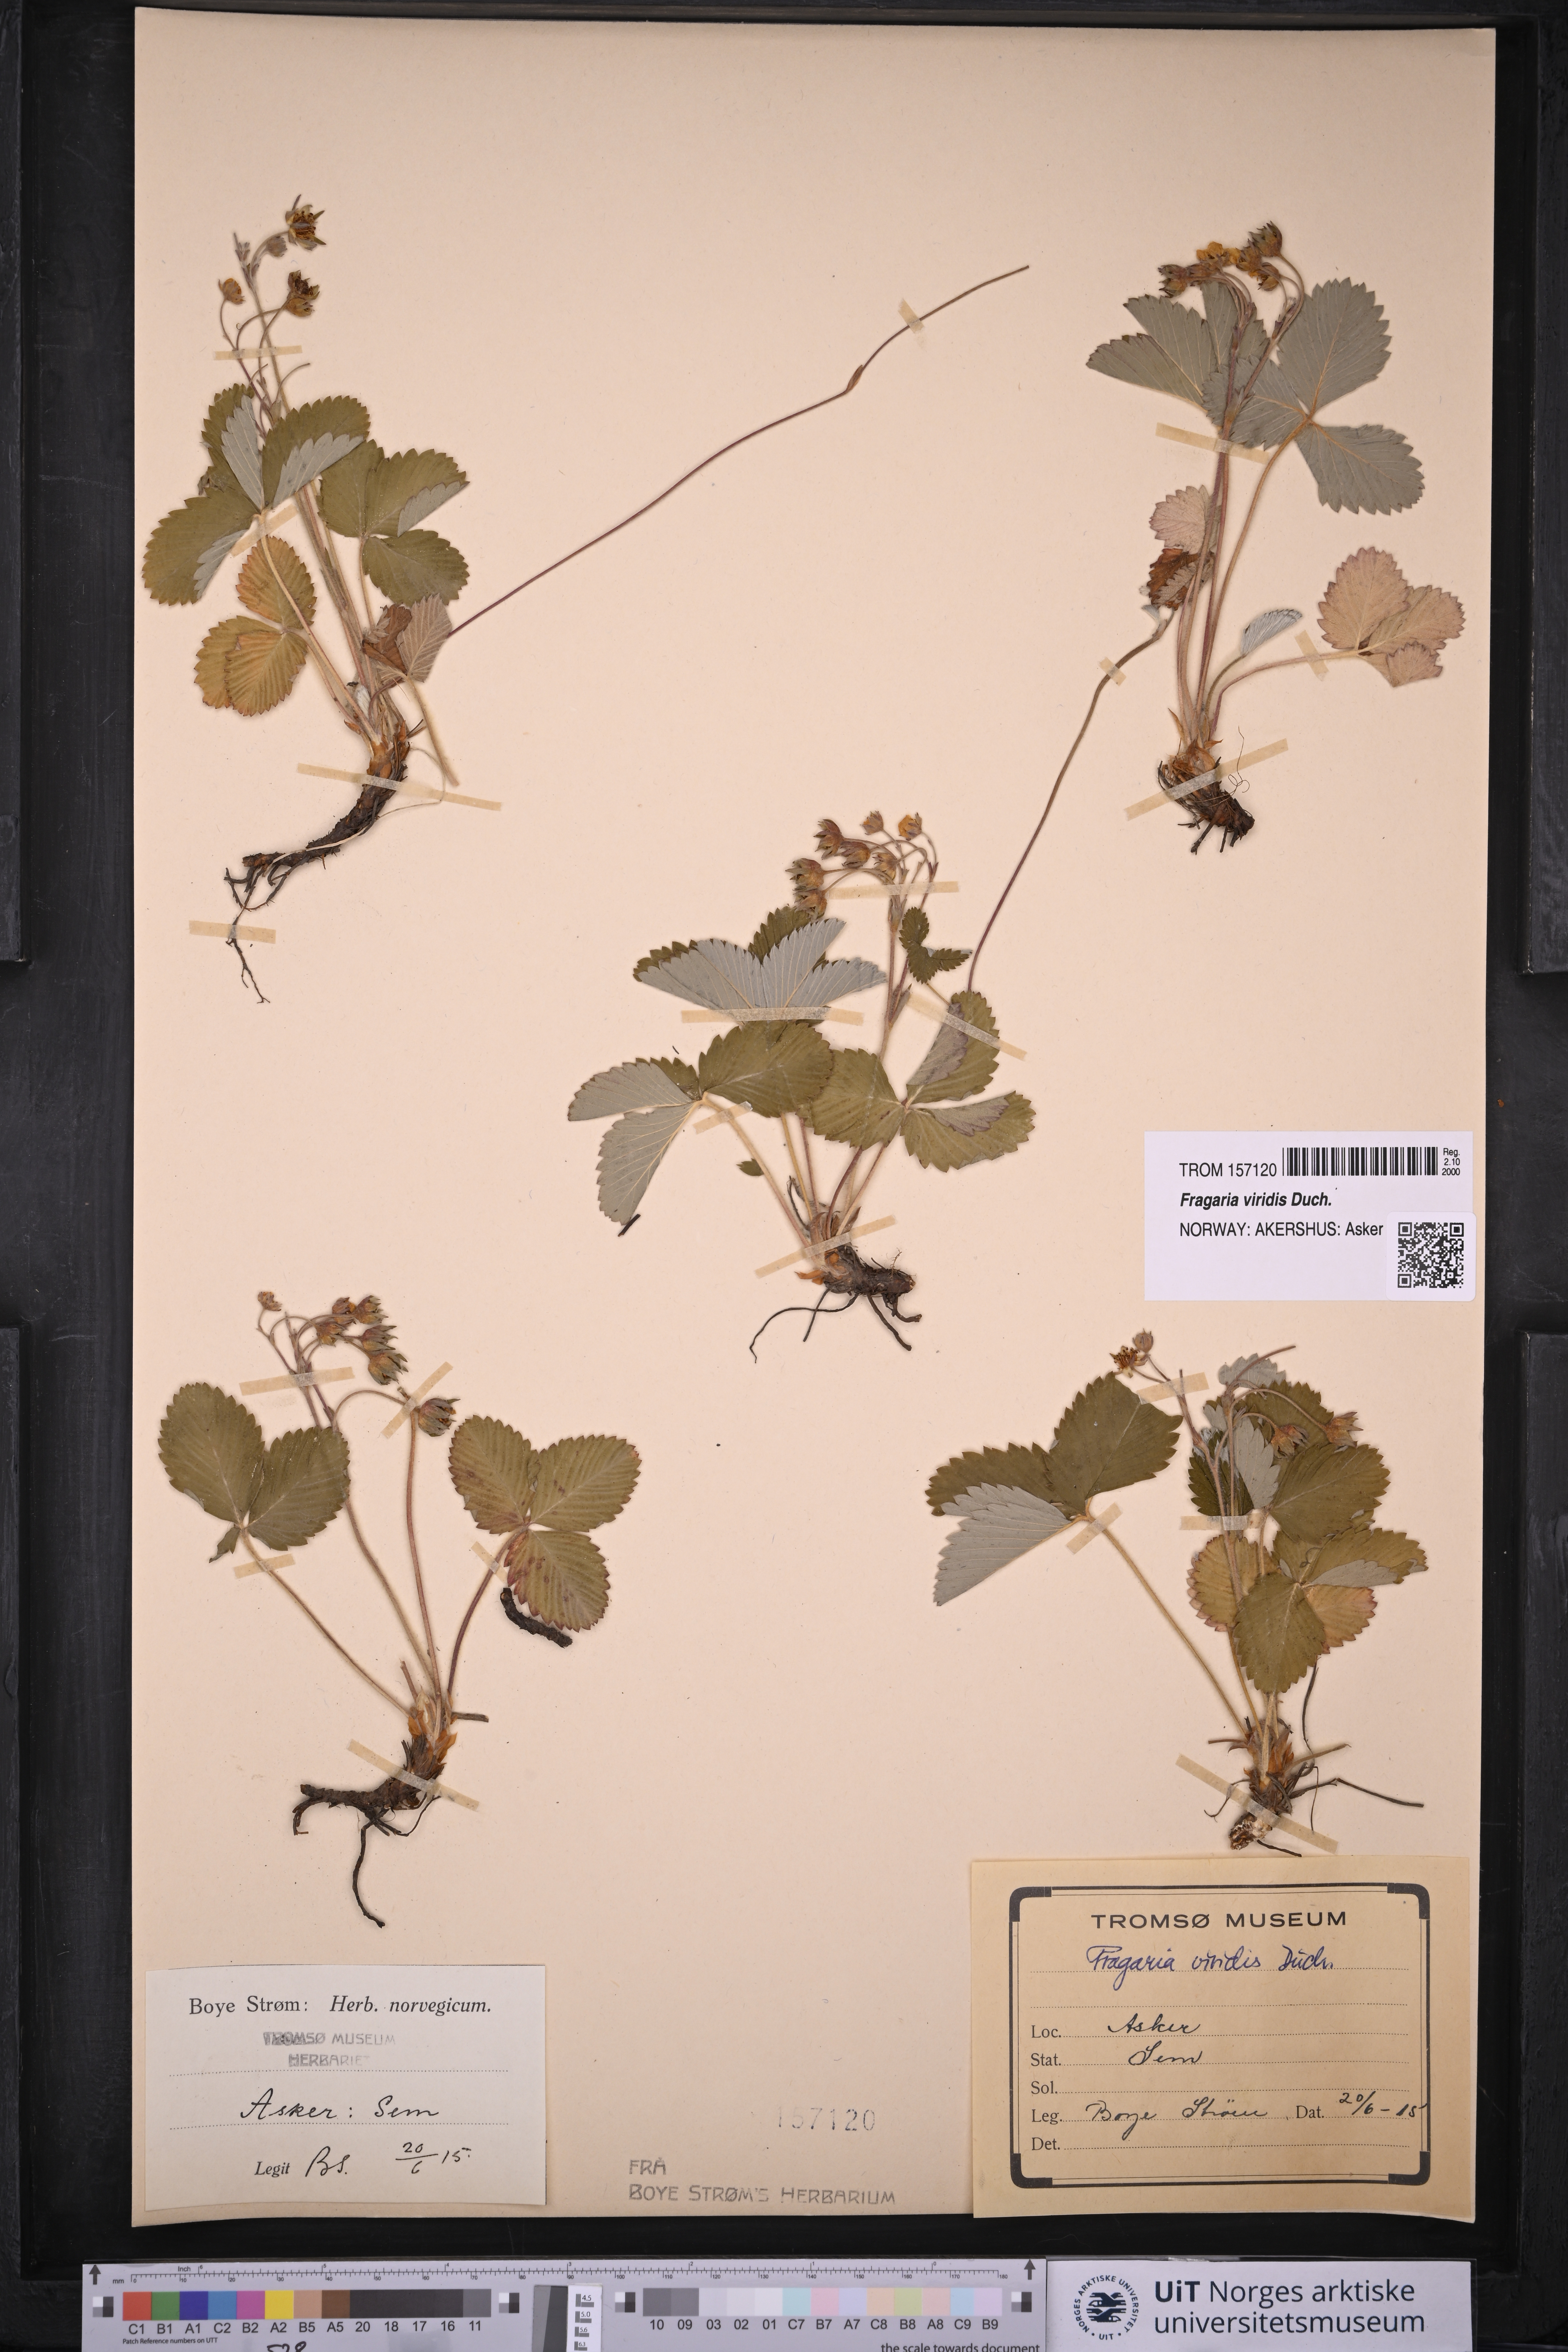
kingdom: Plantae
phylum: Tracheophyta
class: Magnoliopsida
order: Rosales
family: Rosaceae
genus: Fragaria
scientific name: Fragaria viridis
